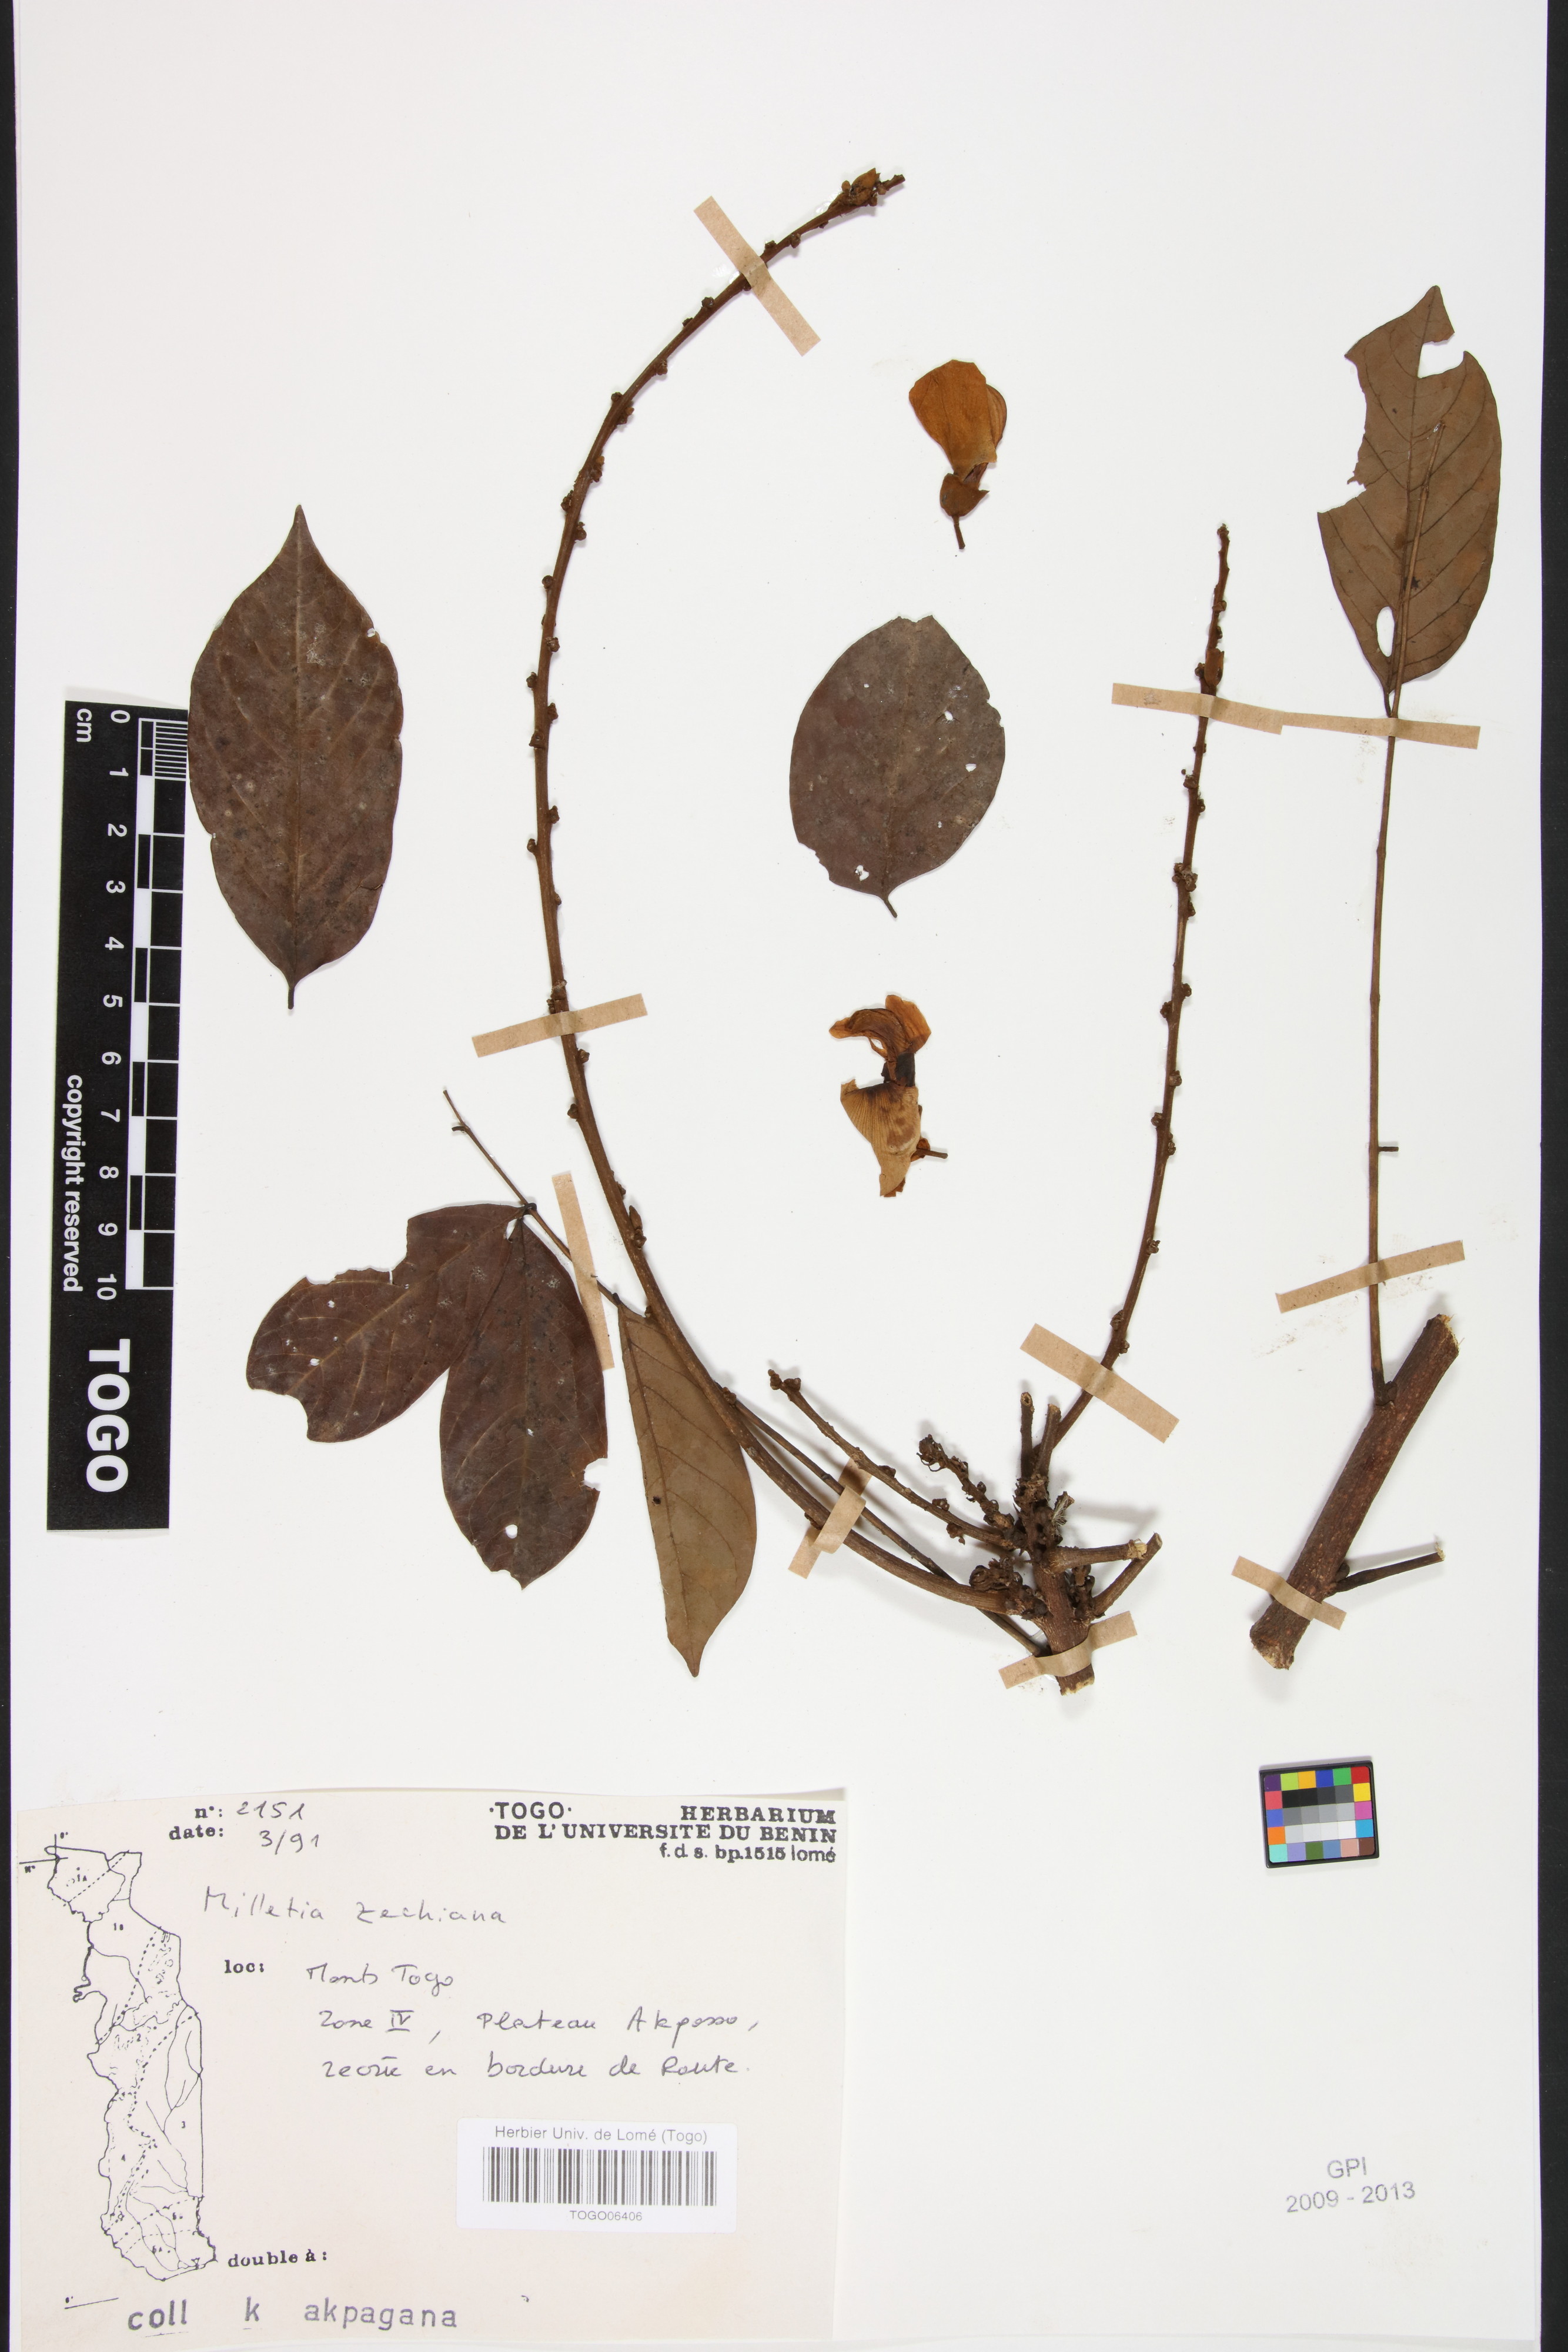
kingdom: Plantae
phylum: Tracheophyta
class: Magnoliopsida
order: Fabales
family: Fabaceae
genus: Millettia
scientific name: Millettia zechiana
